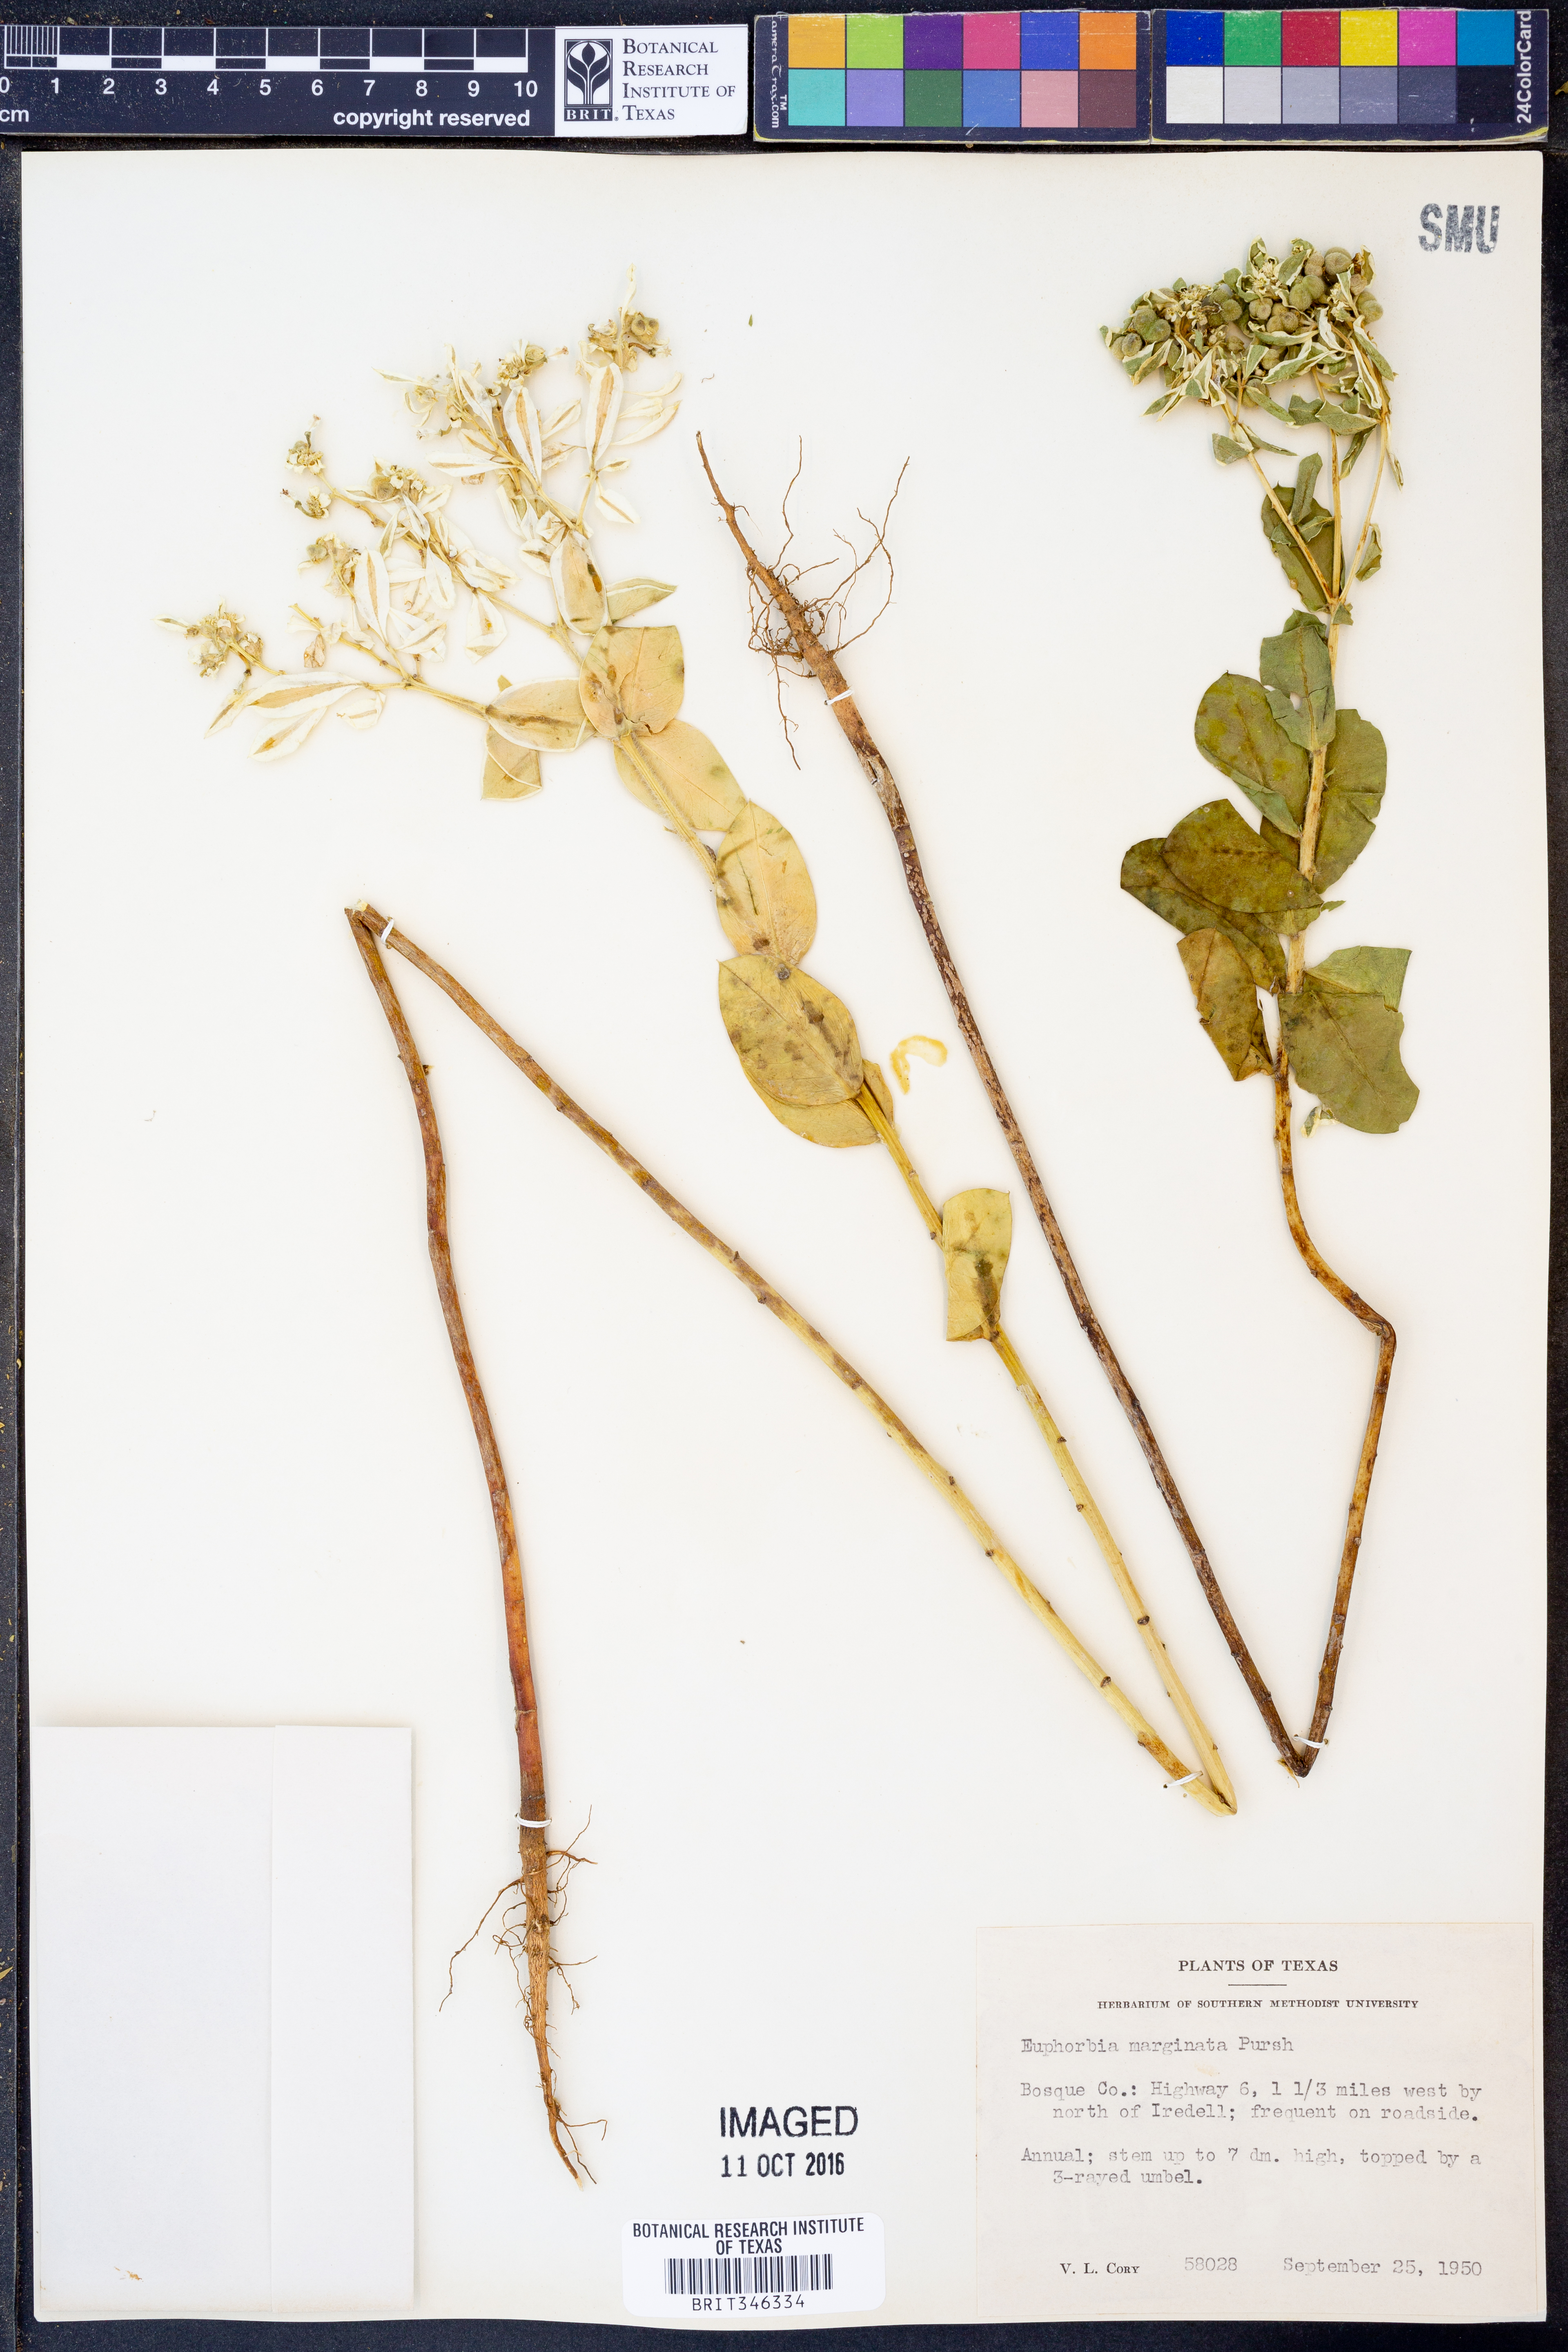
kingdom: Plantae
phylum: Tracheophyta
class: Magnoliopsida
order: Malpighiales
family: Euphorbiaceae
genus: Euphorbia
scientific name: Euphorbia marginata
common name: Ghostweed
